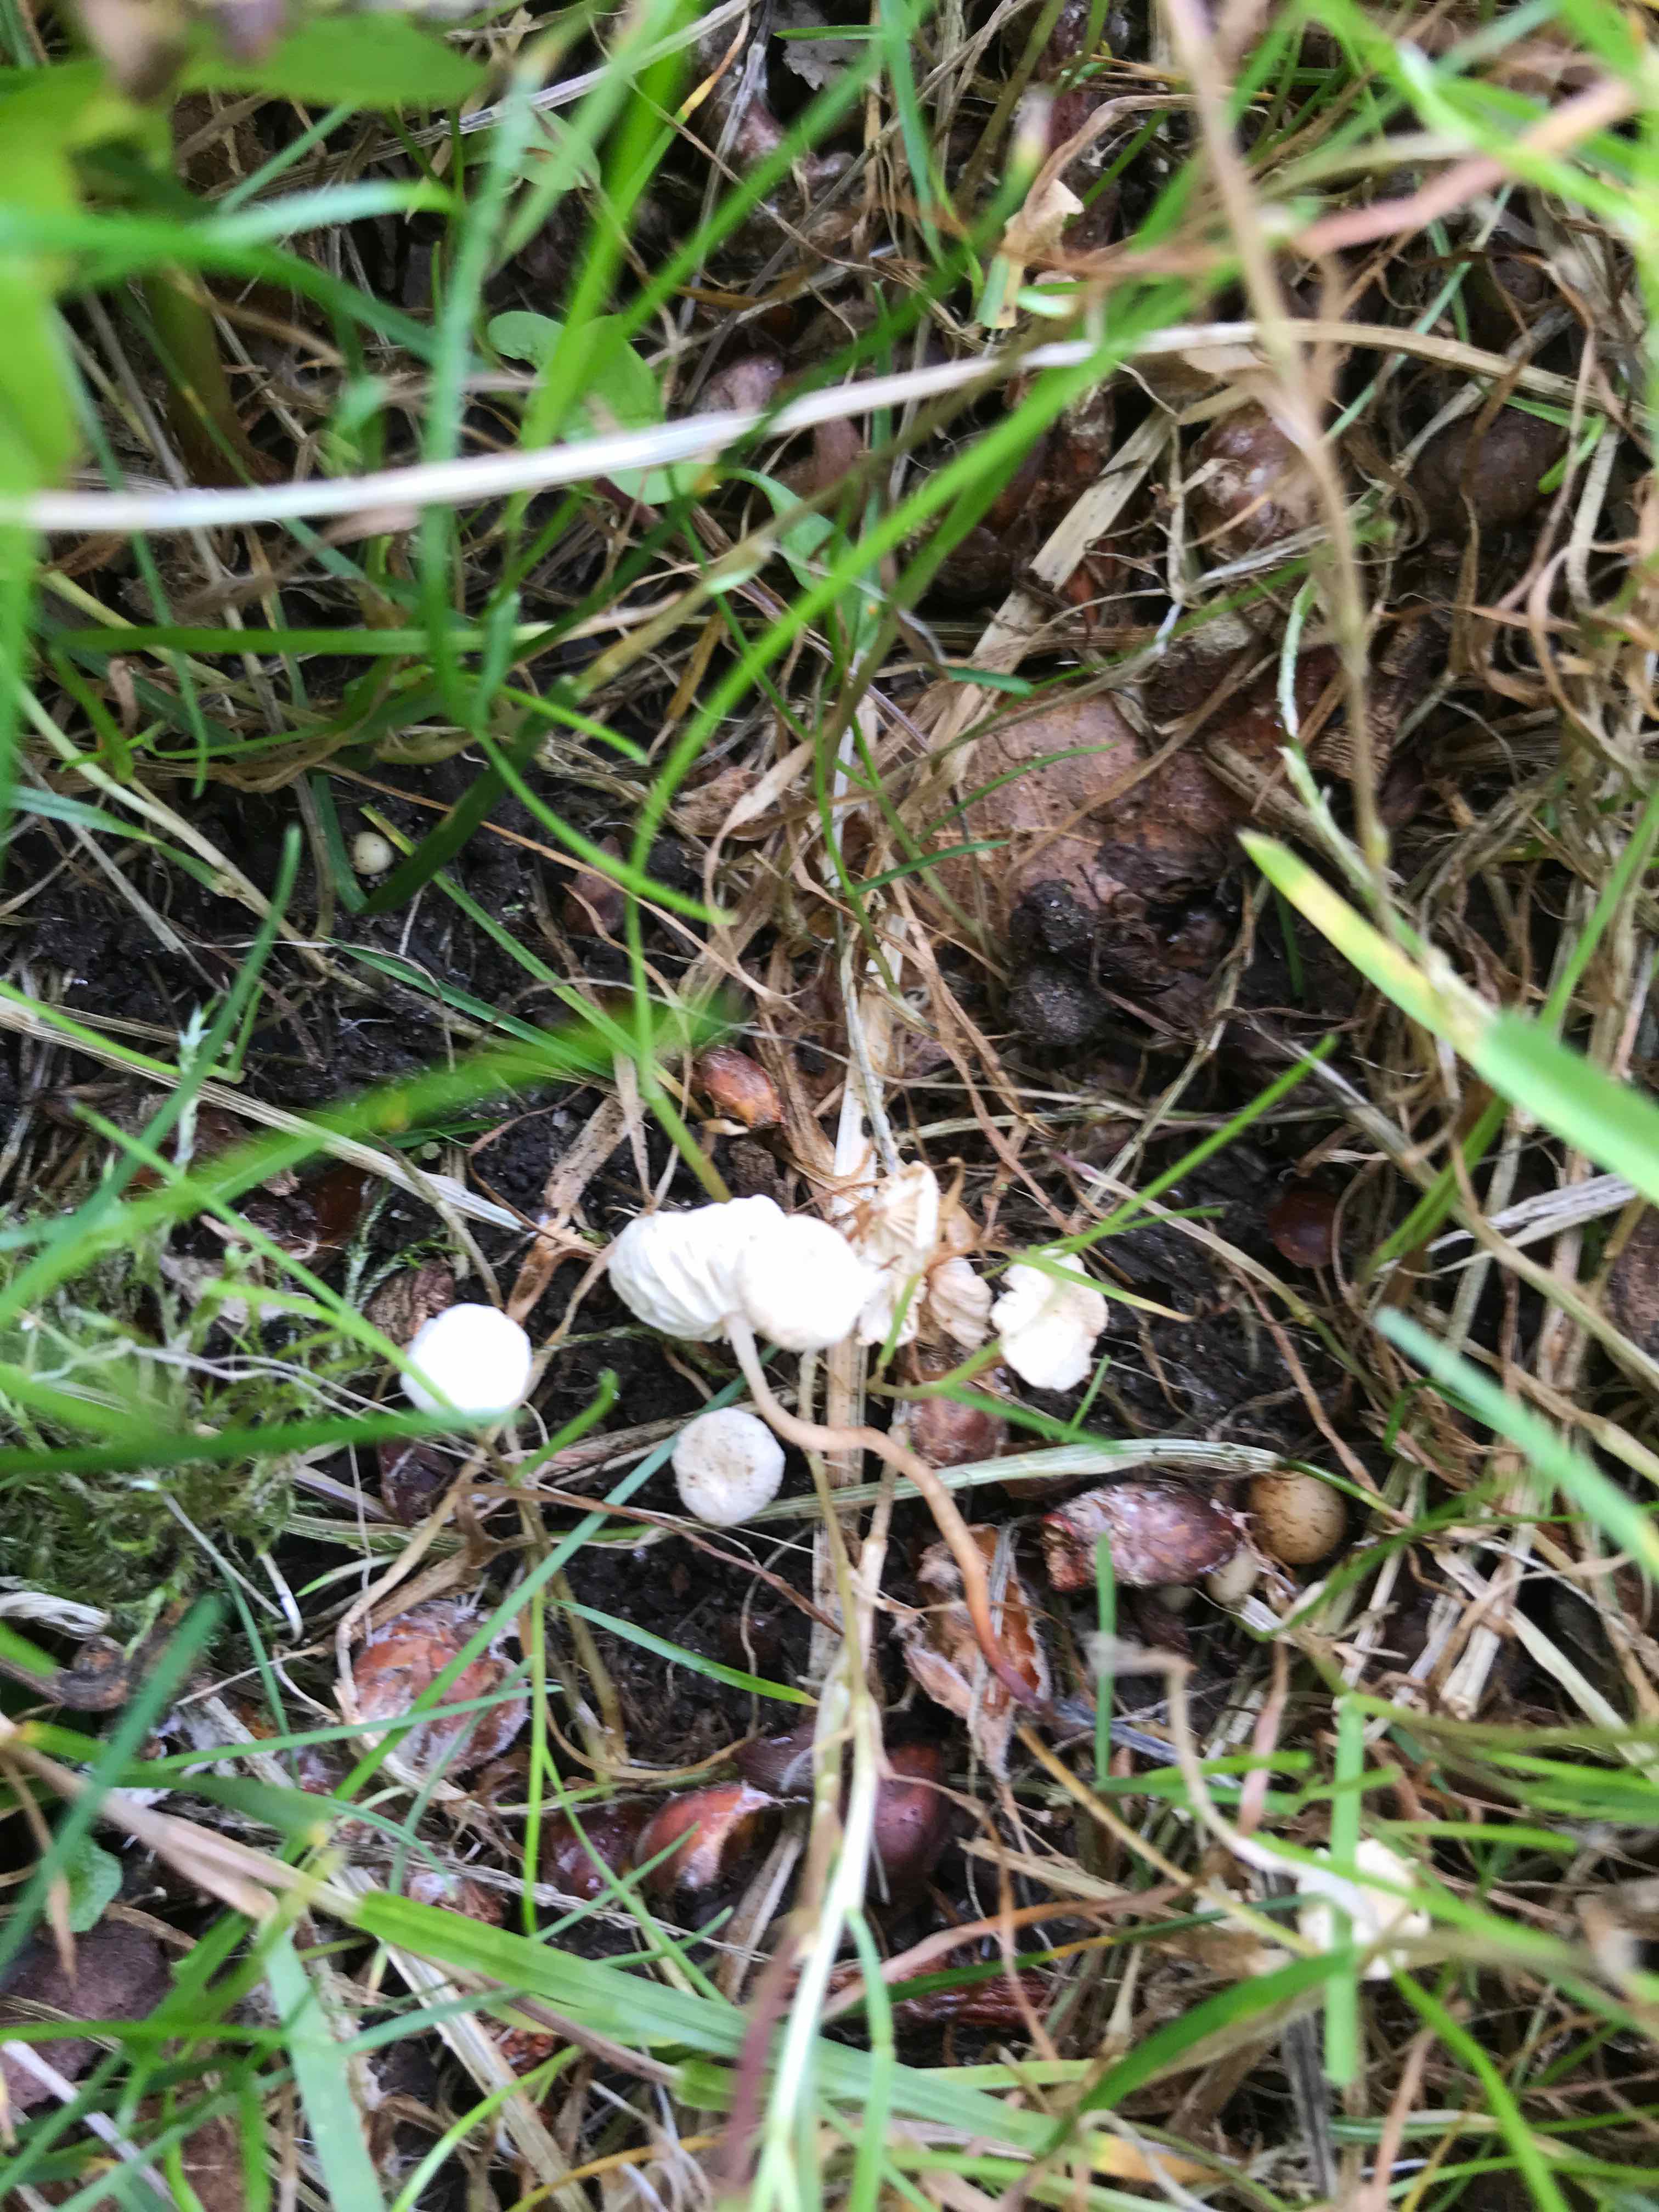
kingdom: Fungi
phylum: Basidiomycota
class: Agaricomycetes
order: Agaricales
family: Omphalotaceae
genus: Collybiopsis
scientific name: Collybiopsis vaillantii
